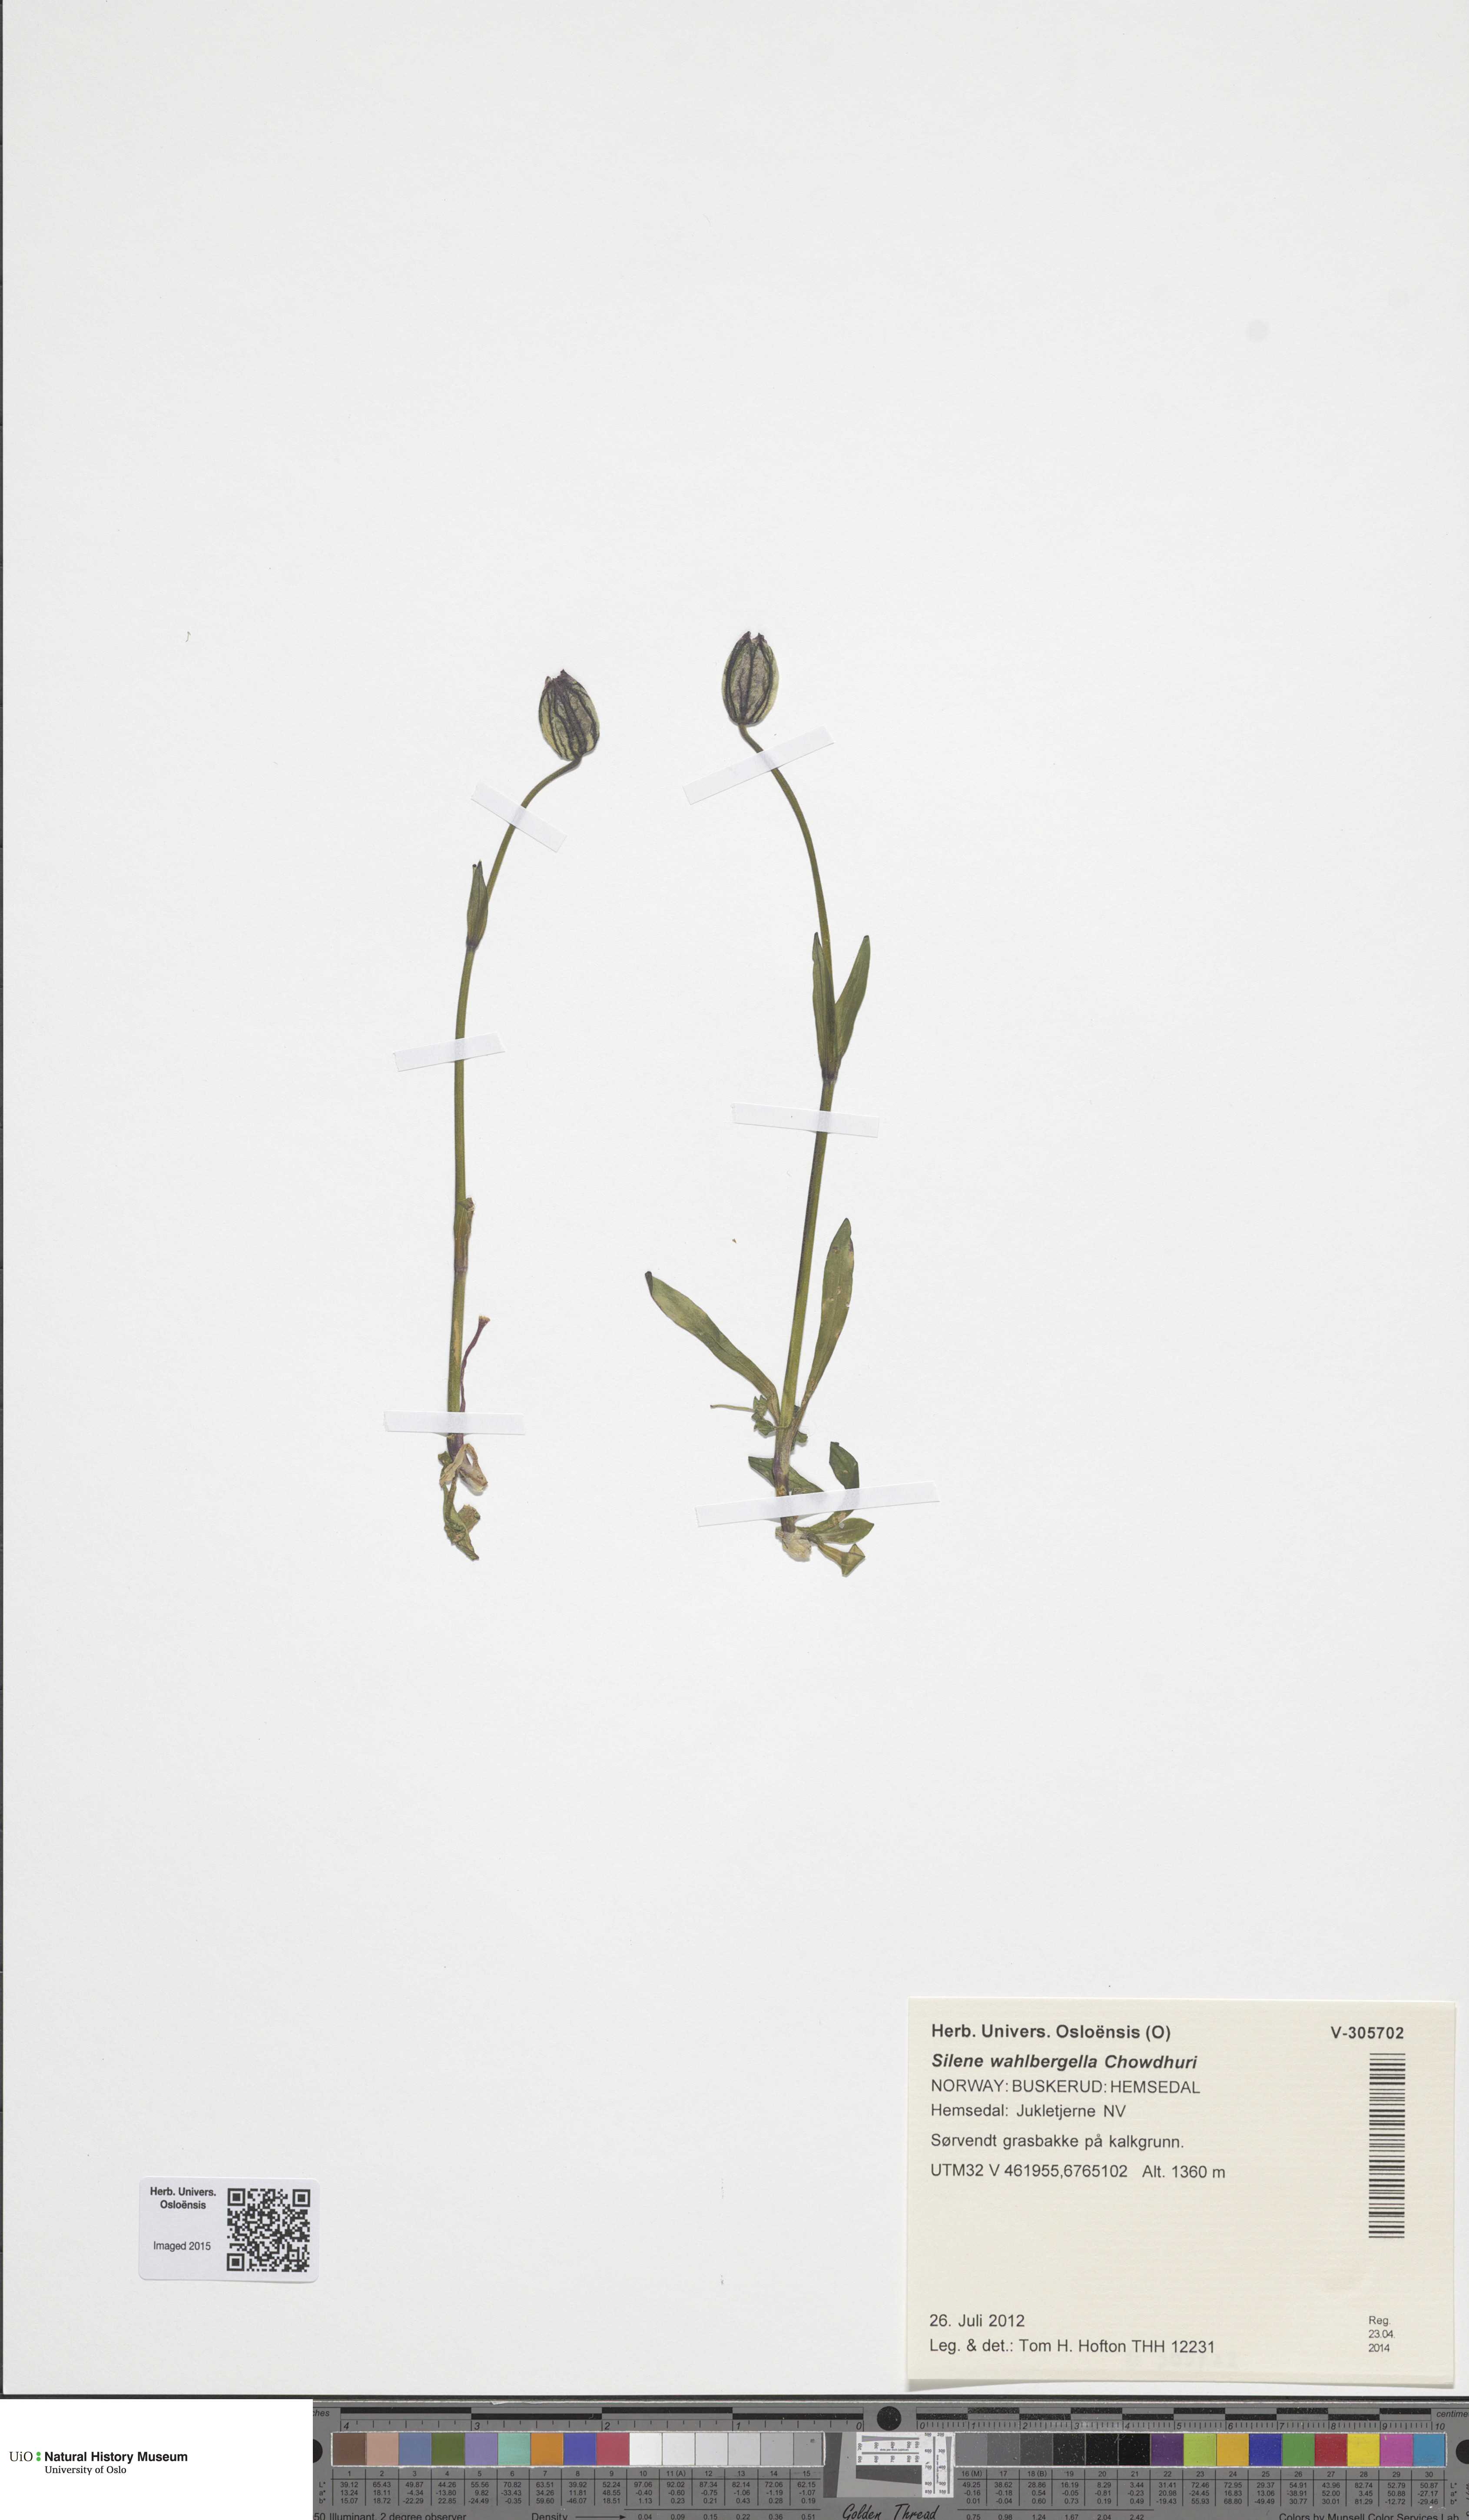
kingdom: Plantae
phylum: Tracheophyta
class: Magnoliopsida
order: Caryophyllales
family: Caryophyllaceae
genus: Silene
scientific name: Silene wahlbergella
